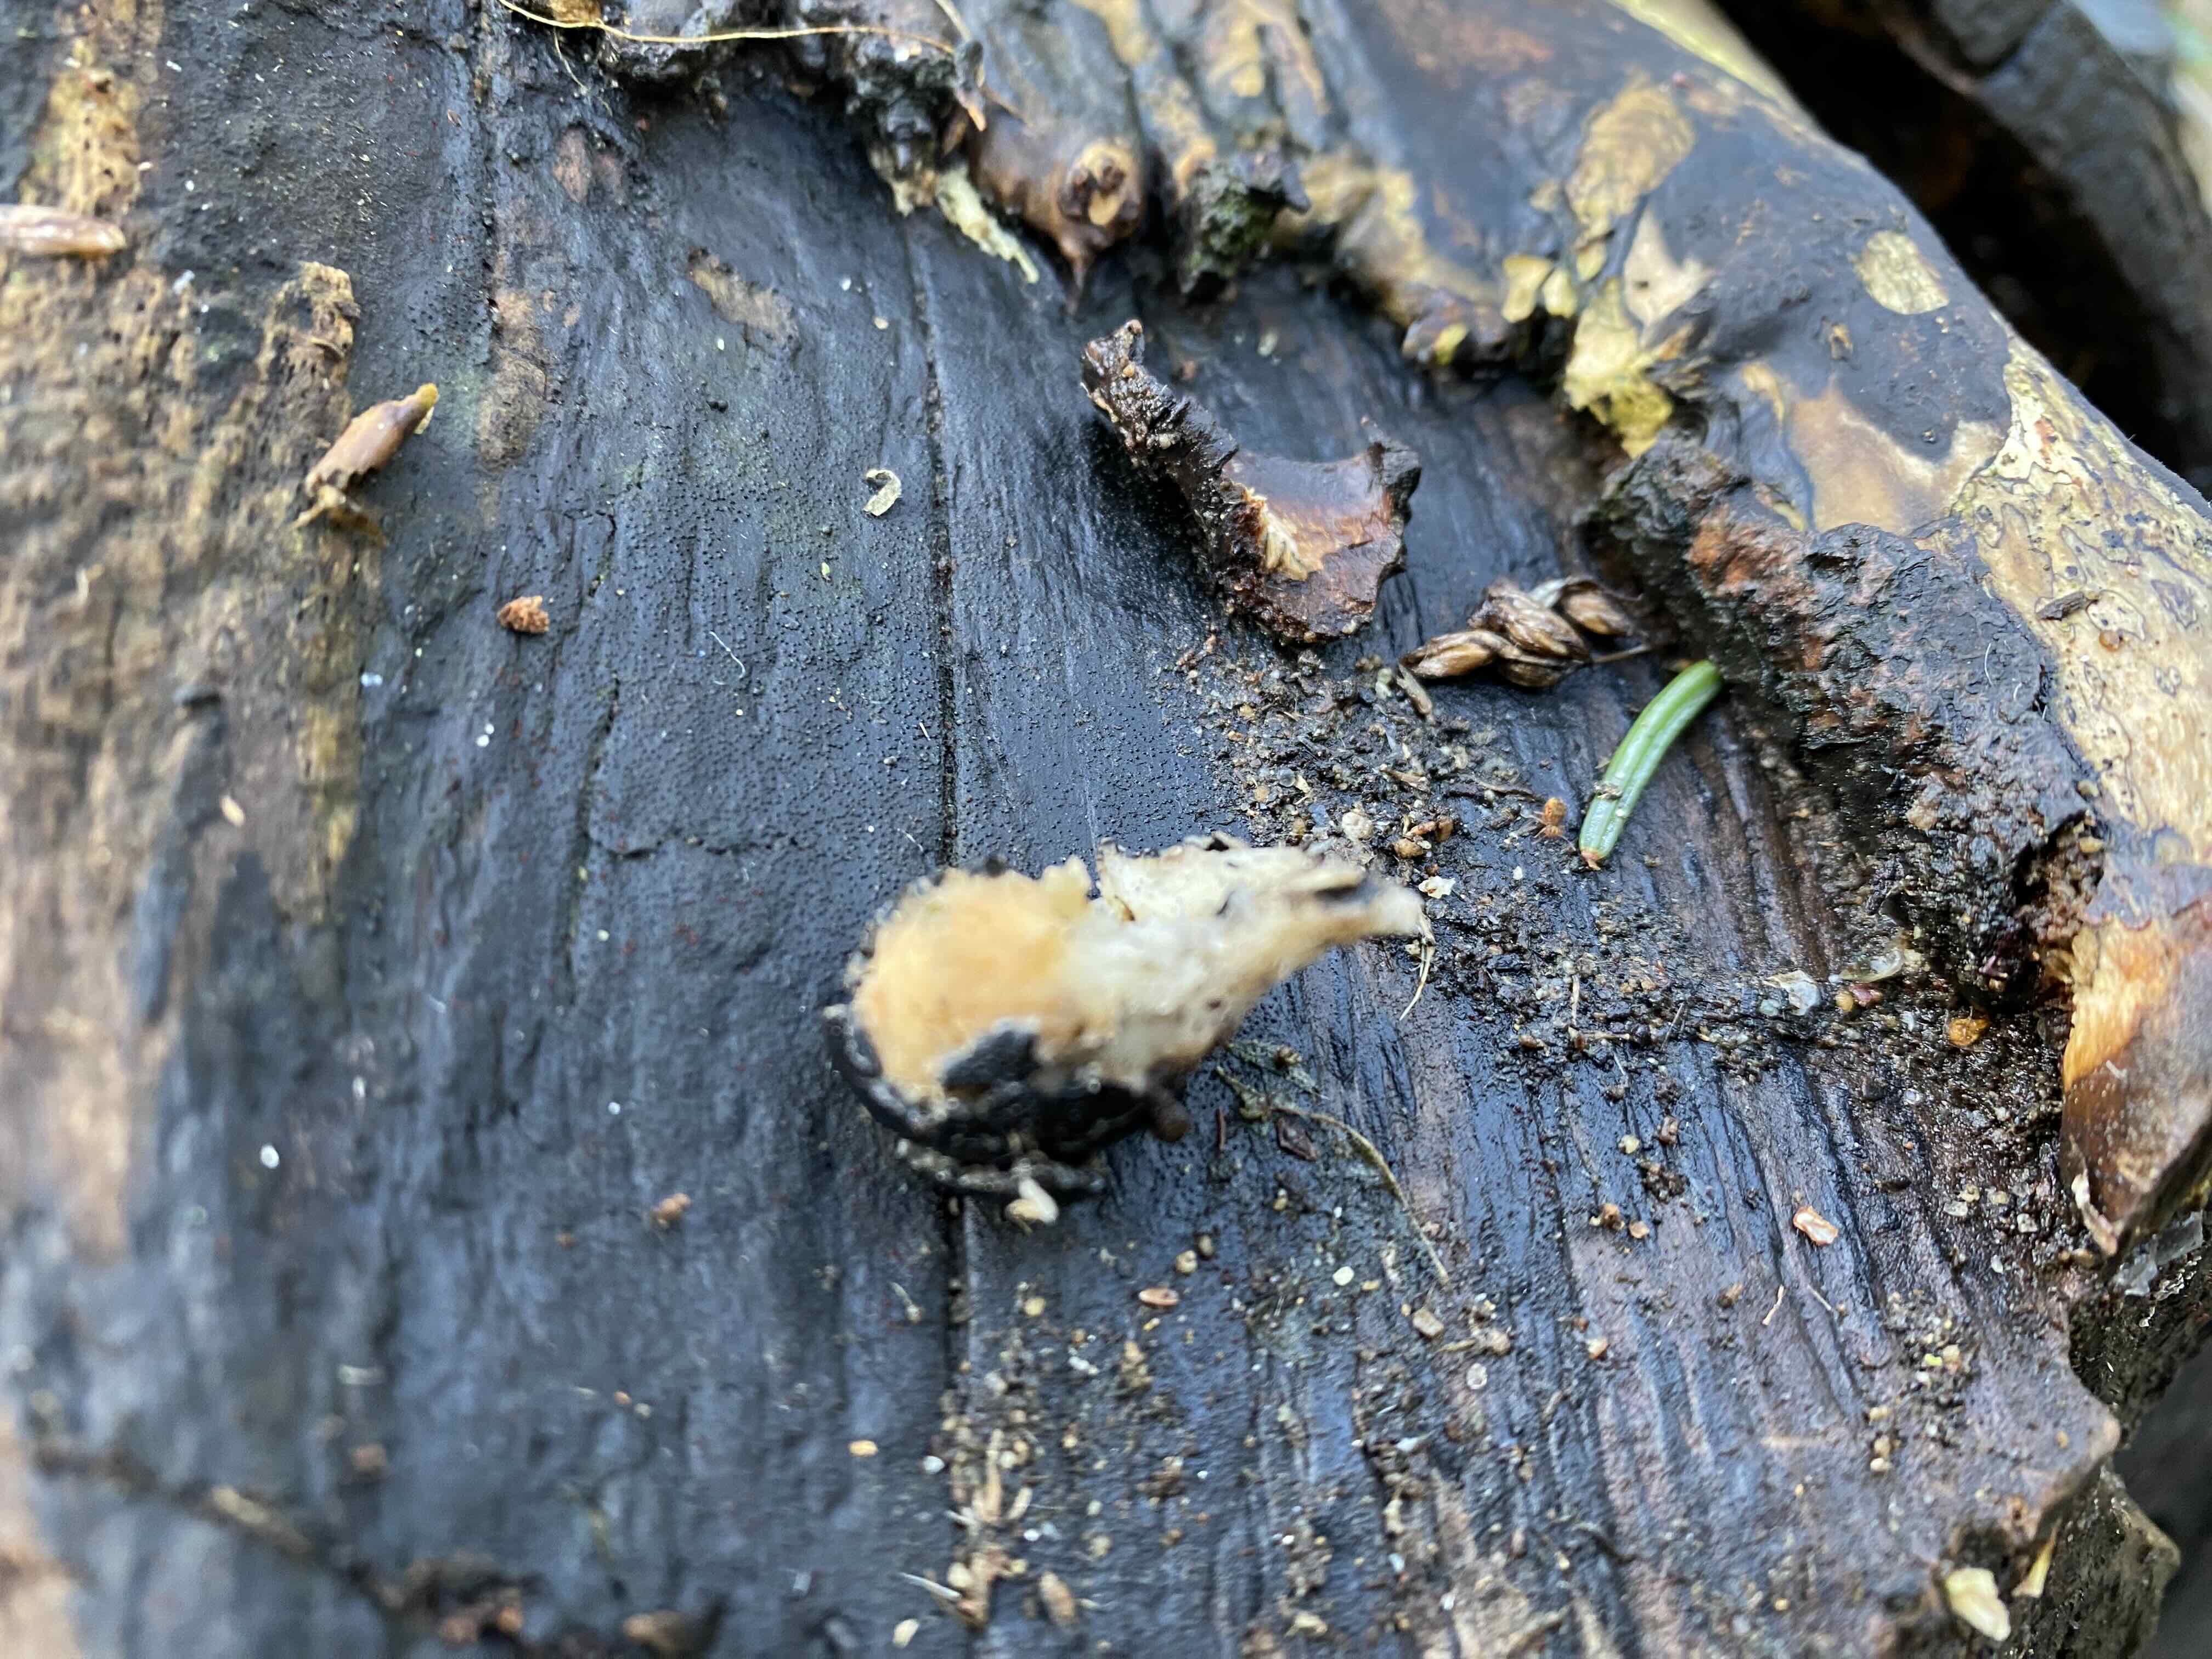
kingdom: Fungi
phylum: Ascomycota
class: Sordariomycetes
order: Xylariales
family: Xylariaceae
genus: Xylaria
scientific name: Xylaria polymorpha
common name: kølle-stødsvamp
